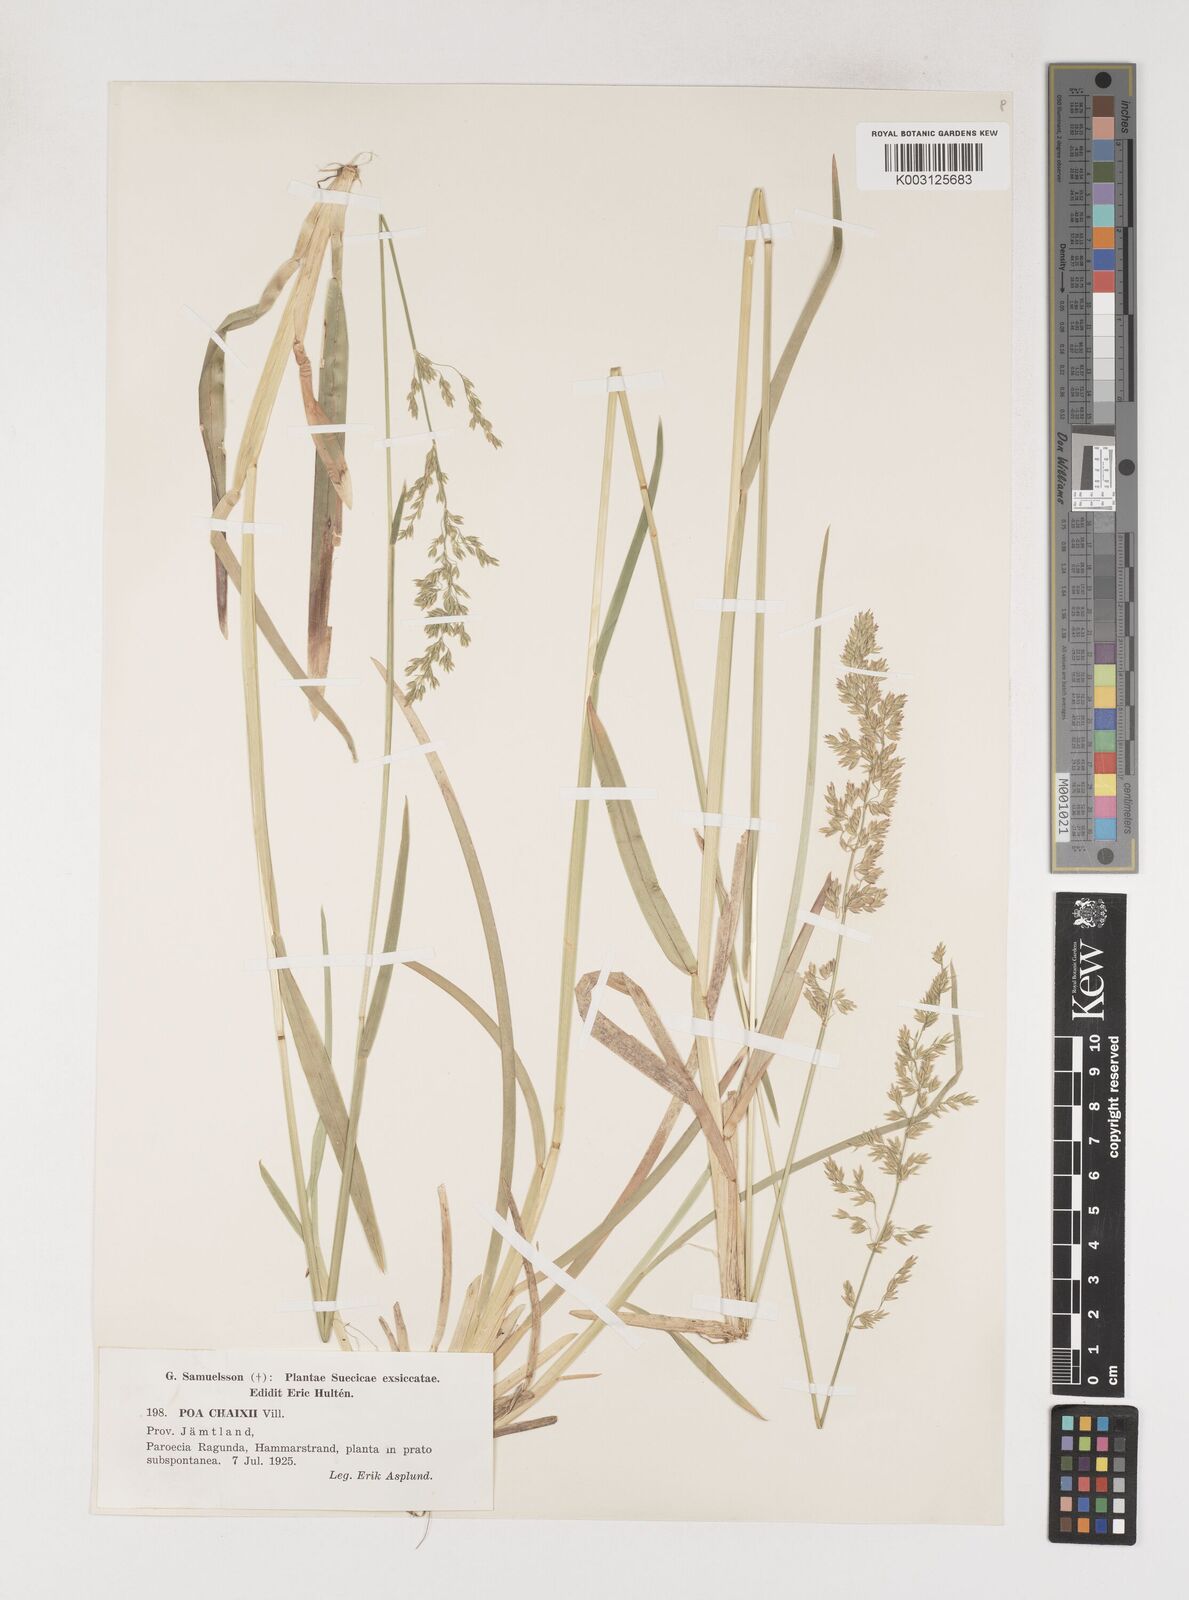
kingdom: Plantae
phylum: Tracheophyta
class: Liliopsida
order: Poales
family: Poaceae
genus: Poa
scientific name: Poa chaixii
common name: Broad-leaved meadow-grass
